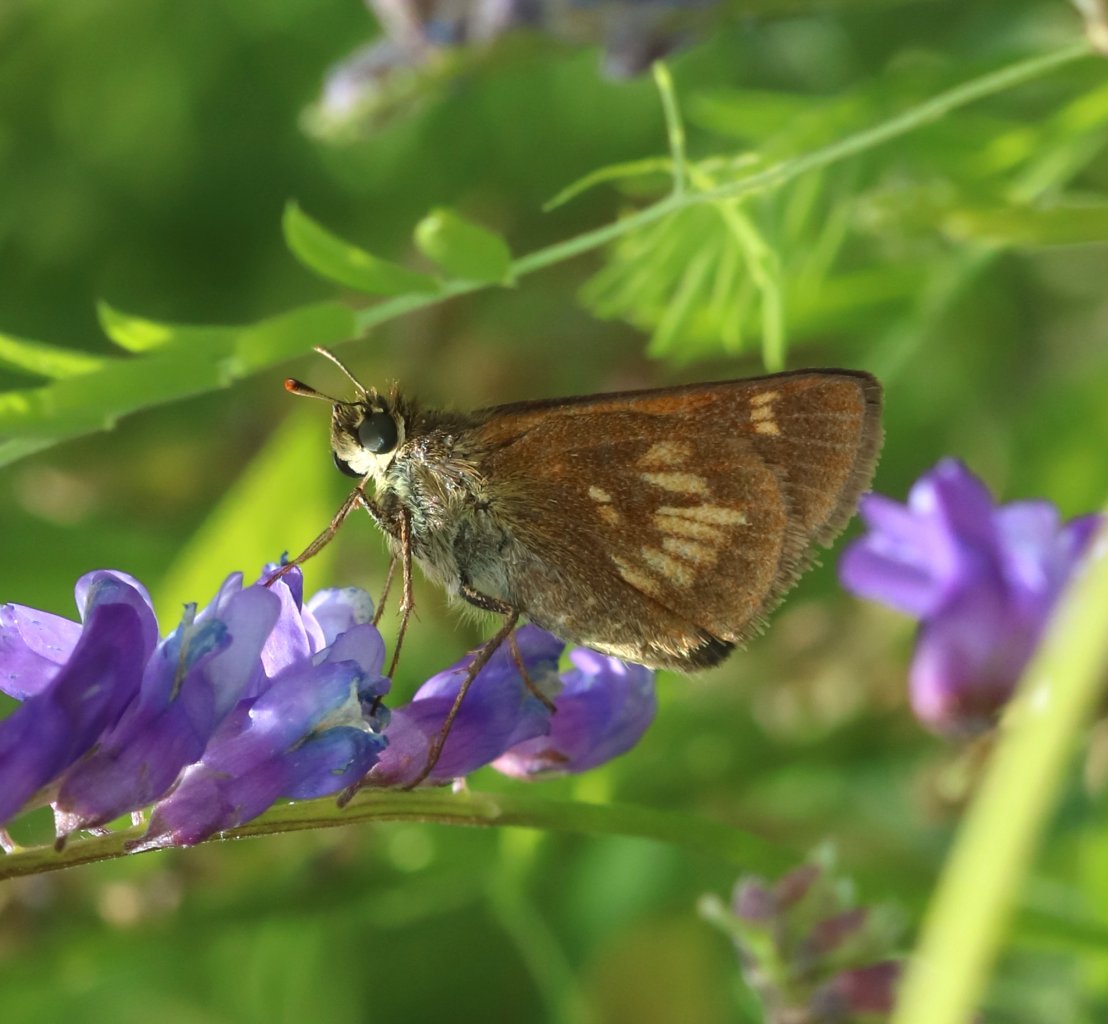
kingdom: Animalia
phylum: Arthropoda
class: Insecta
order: Lepidoptera
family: Hesperiidae
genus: Polites
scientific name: Polites
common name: Long Dash Skipper
